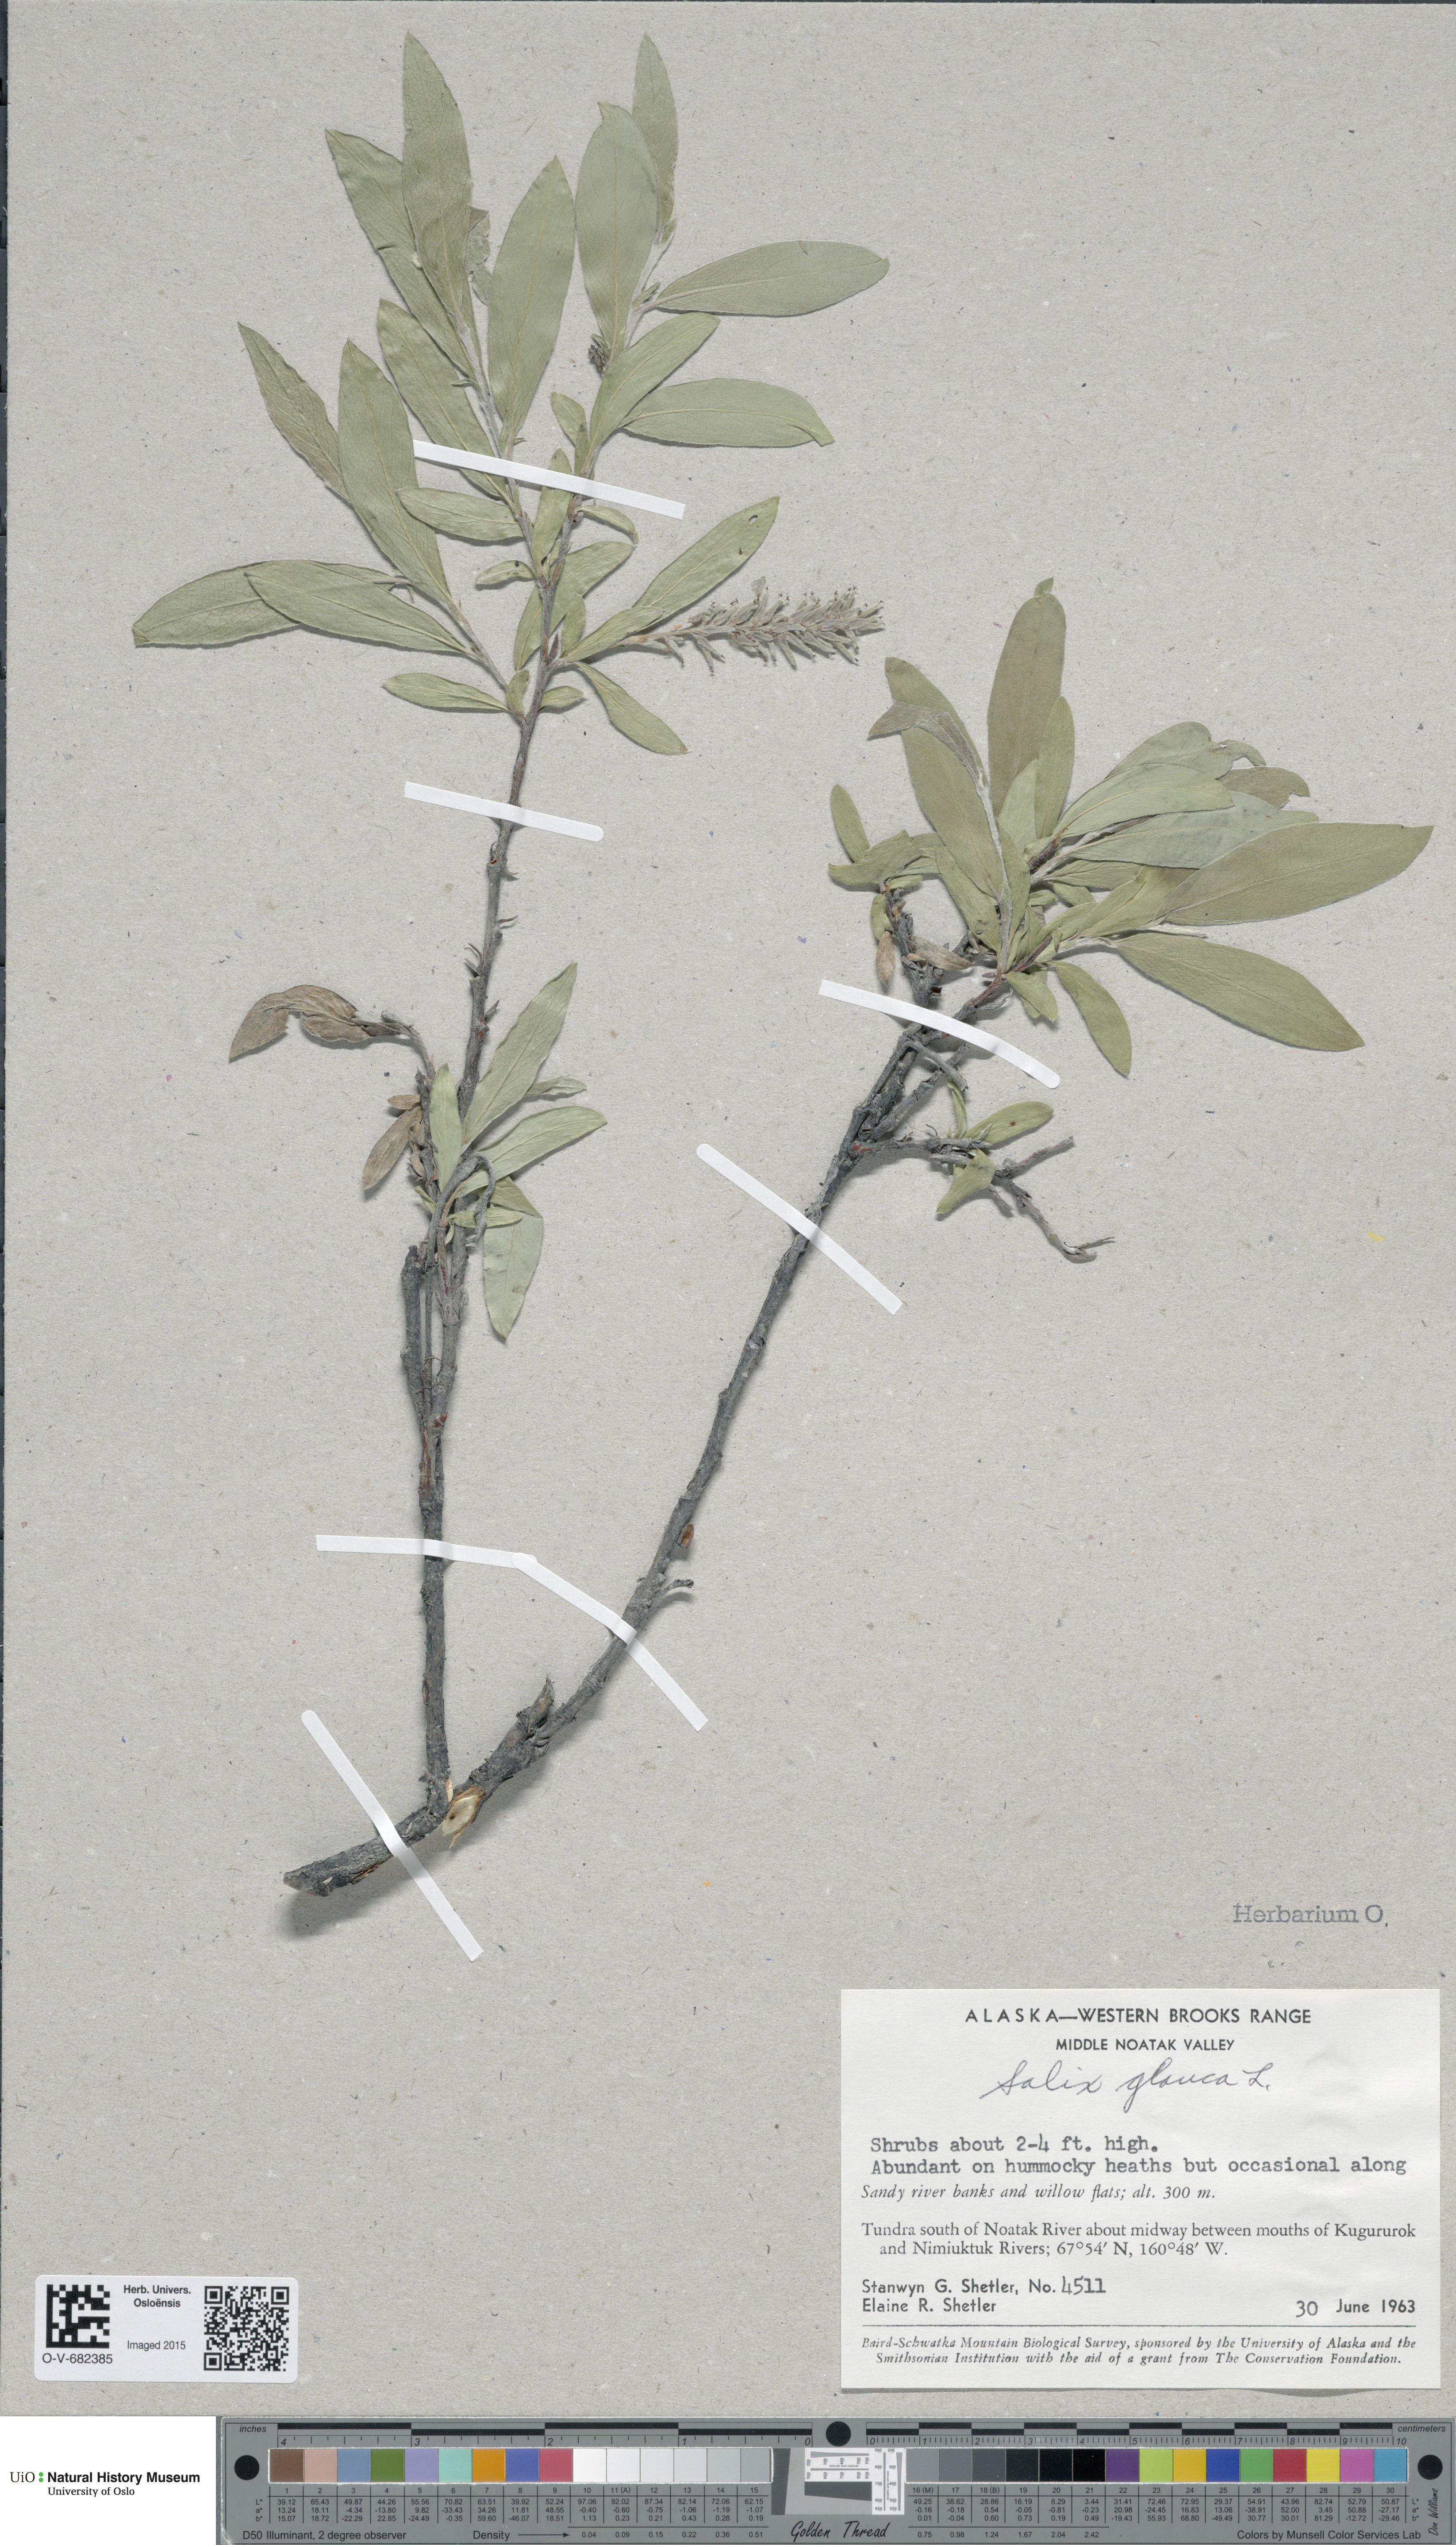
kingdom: Plantae
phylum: Tracheophyta
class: Magnoliopsida
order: Malpighiales
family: Salicaceae
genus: Salix
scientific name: Salix glauca
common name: Glaucous willow
